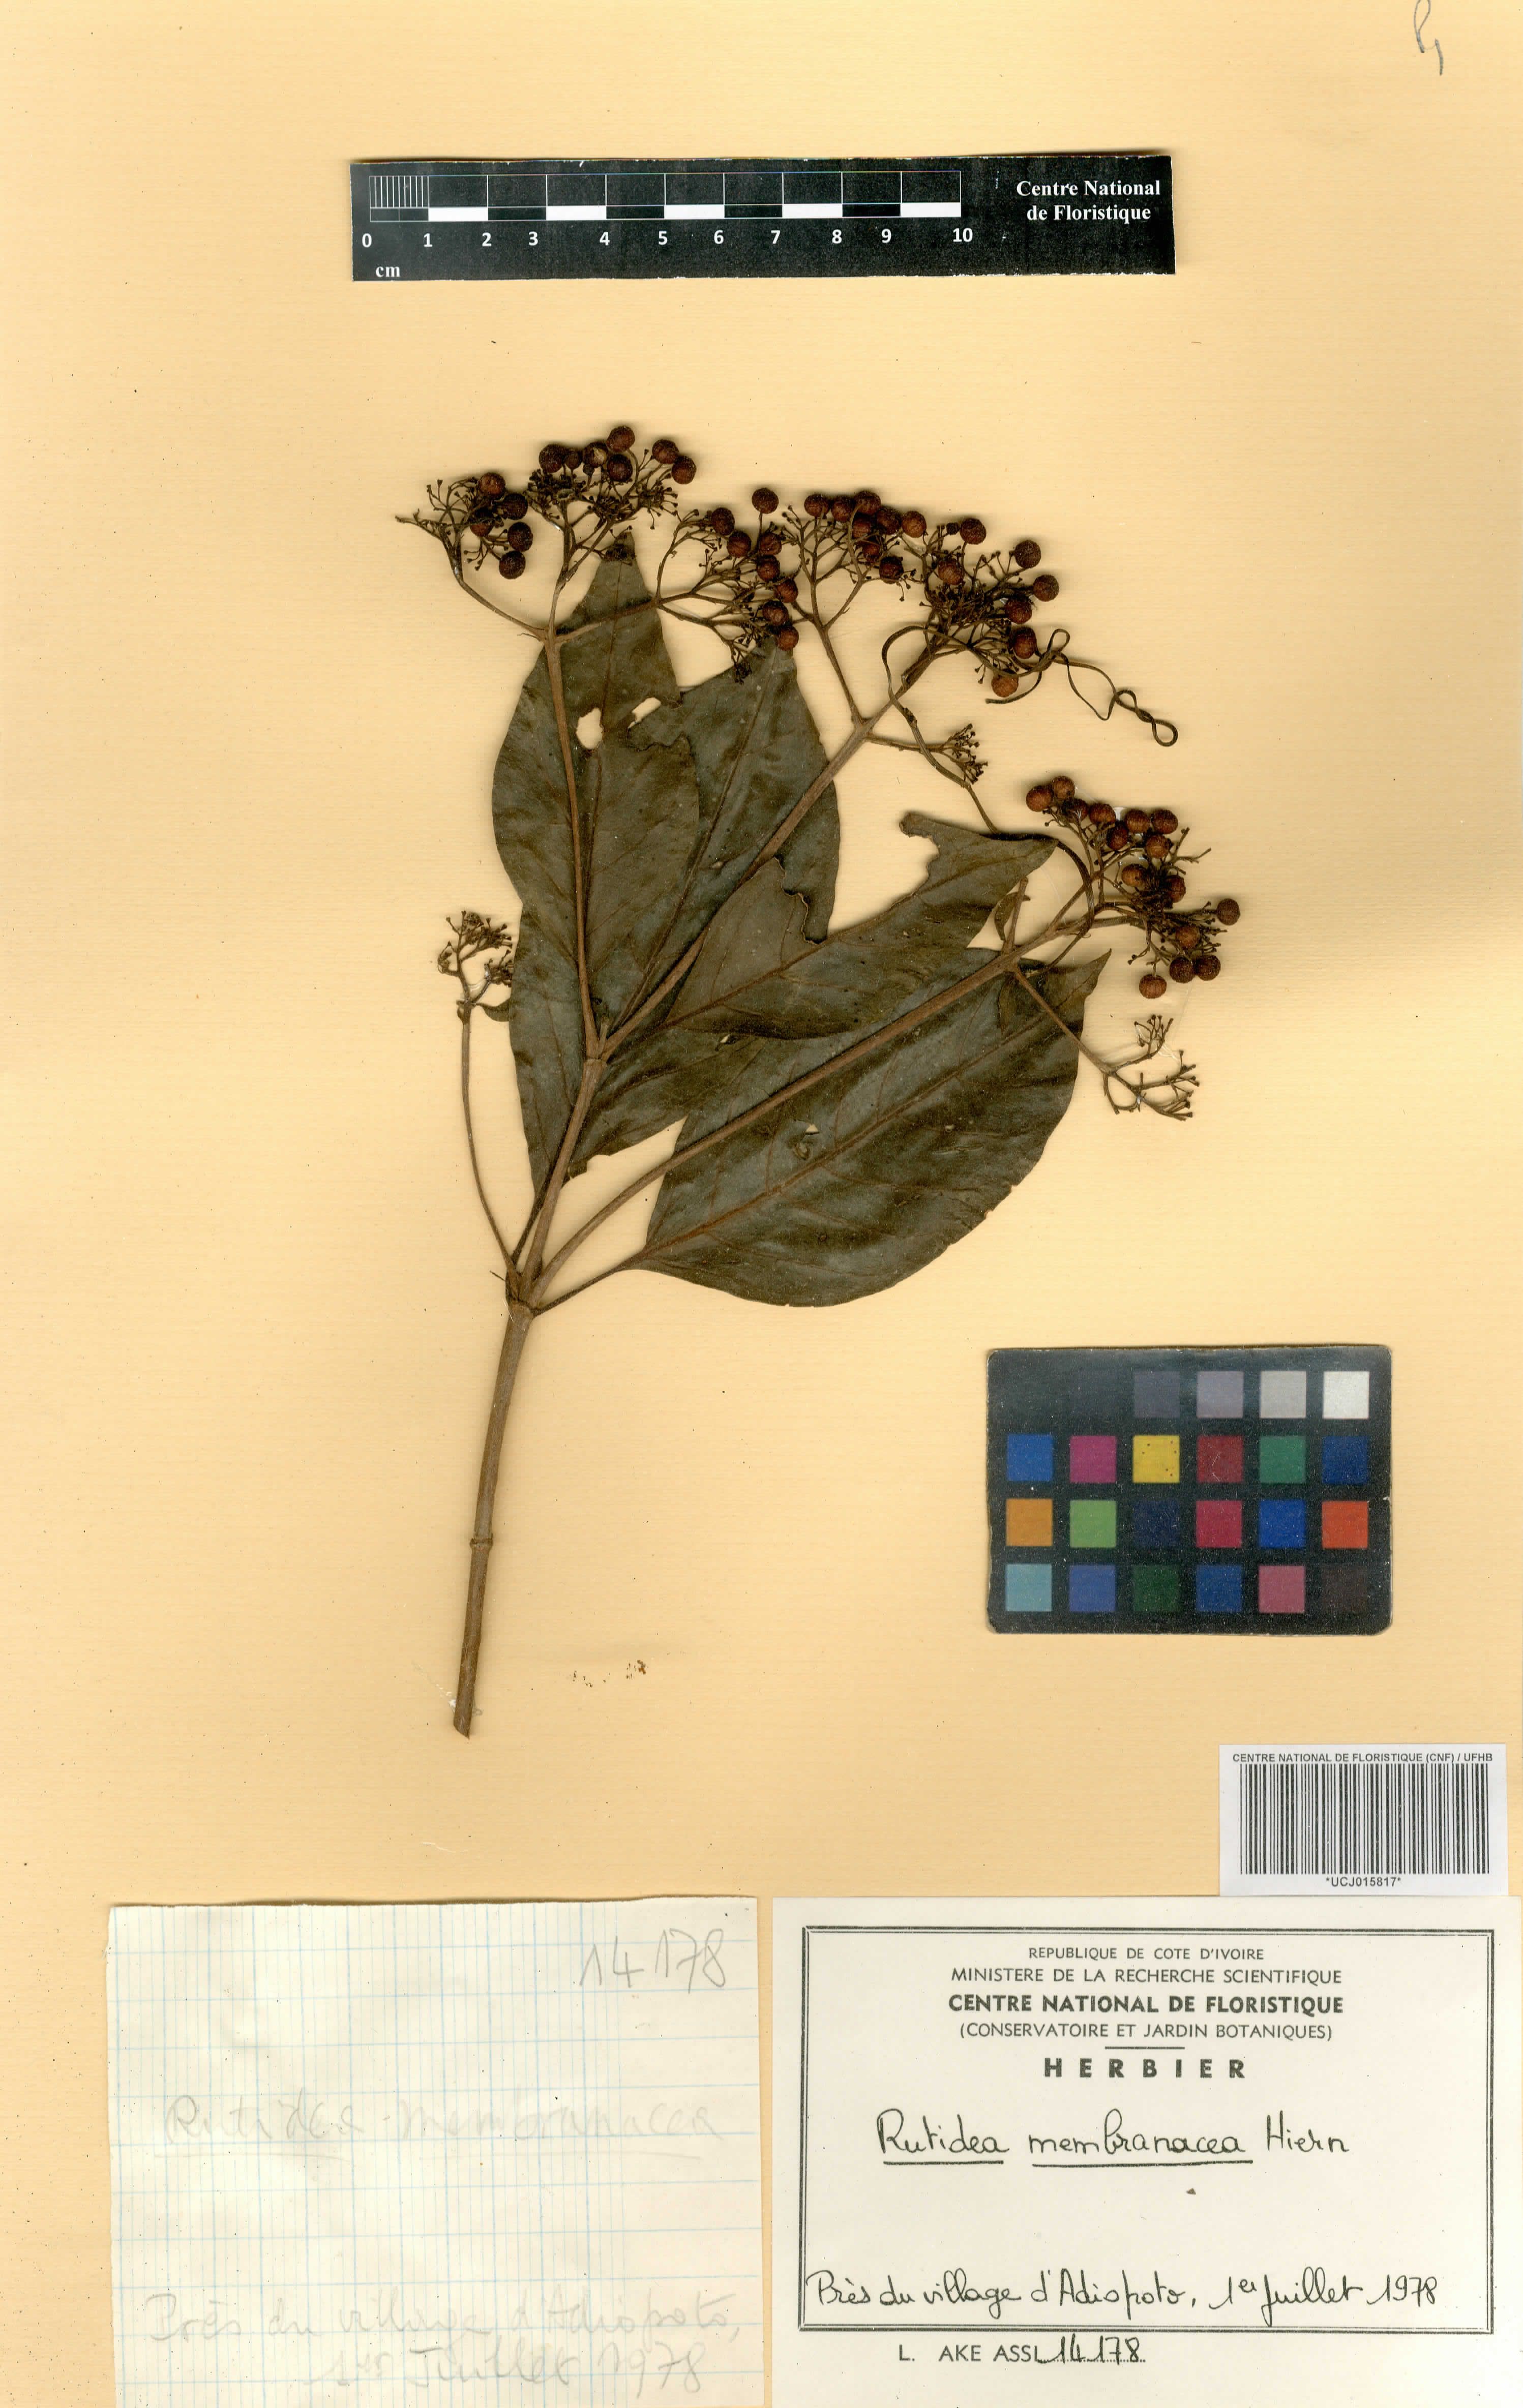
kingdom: Plantae
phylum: Tracheophyta
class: Magnoliopsida
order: Gentianales
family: Rubiaceae
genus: Rutidea
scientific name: Rutidea membranacea
